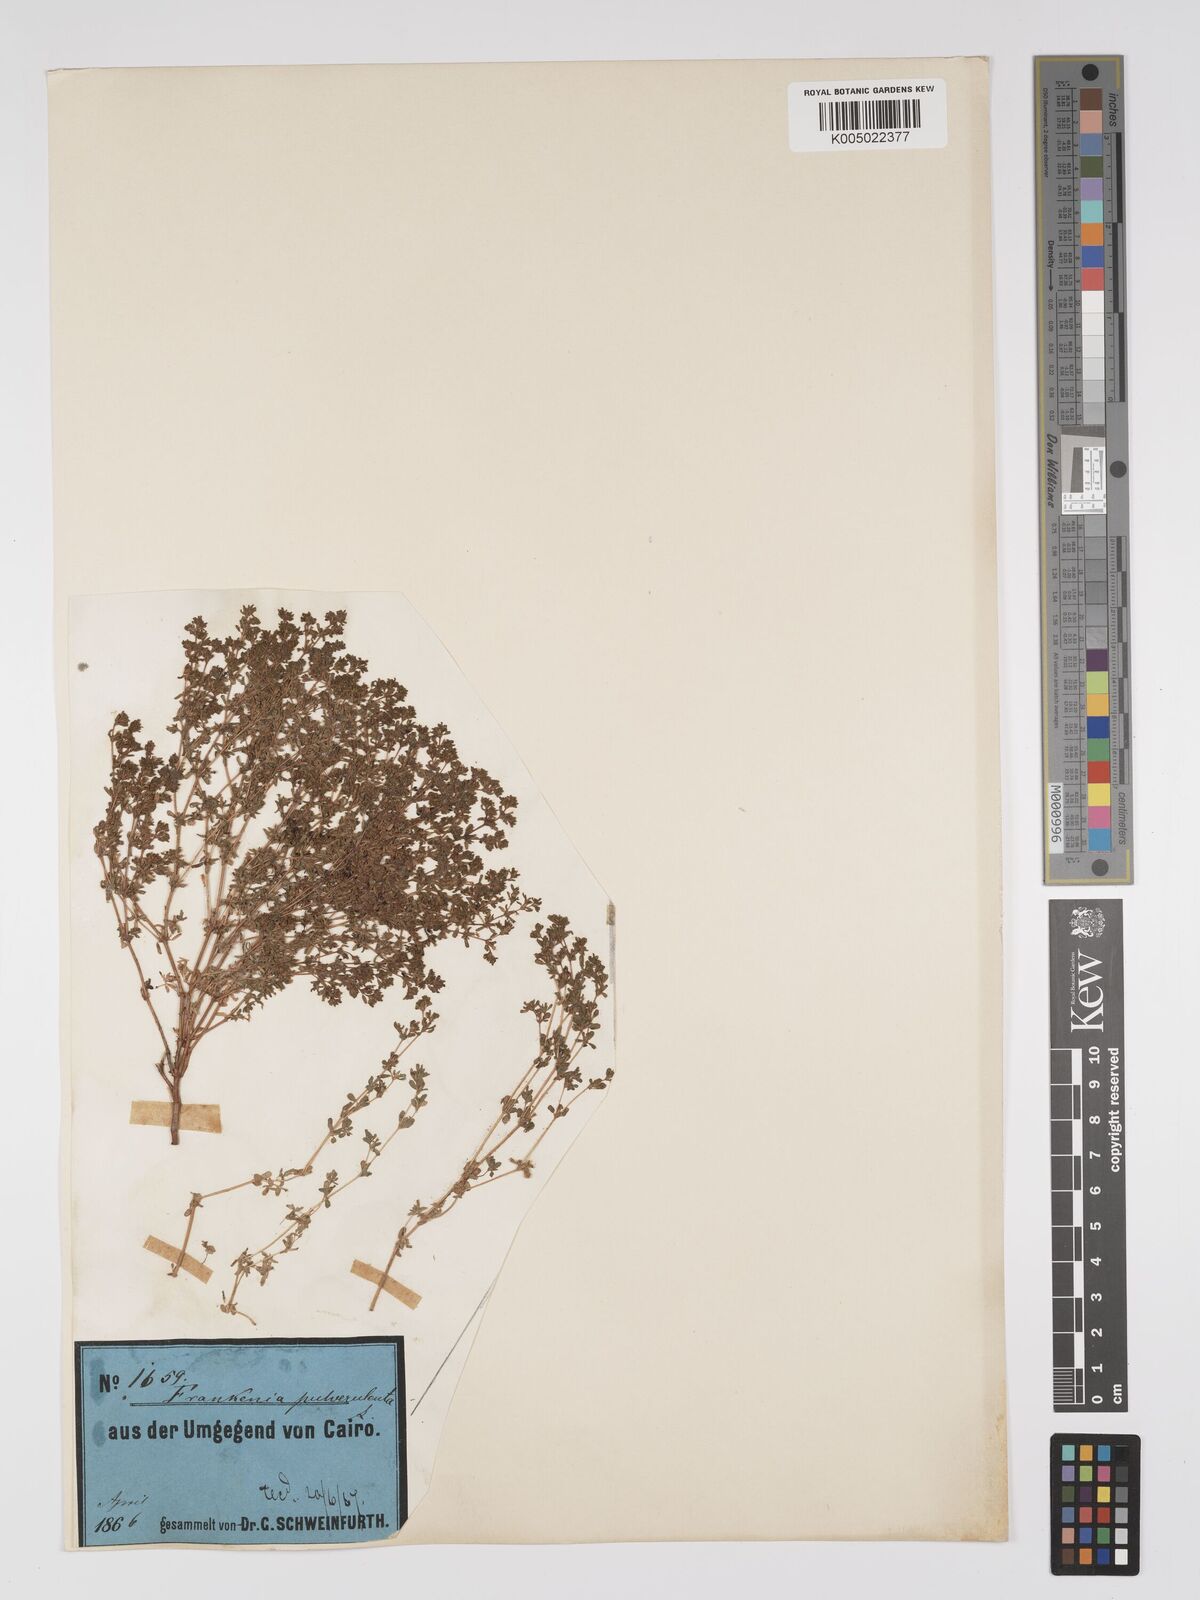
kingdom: Plantae
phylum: Tracheophyta
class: Magnoliopsida
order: Caryophyllales
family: Frankeniaceae
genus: Frankenia
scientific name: Frankenia pulverulenta
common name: European seaheath
